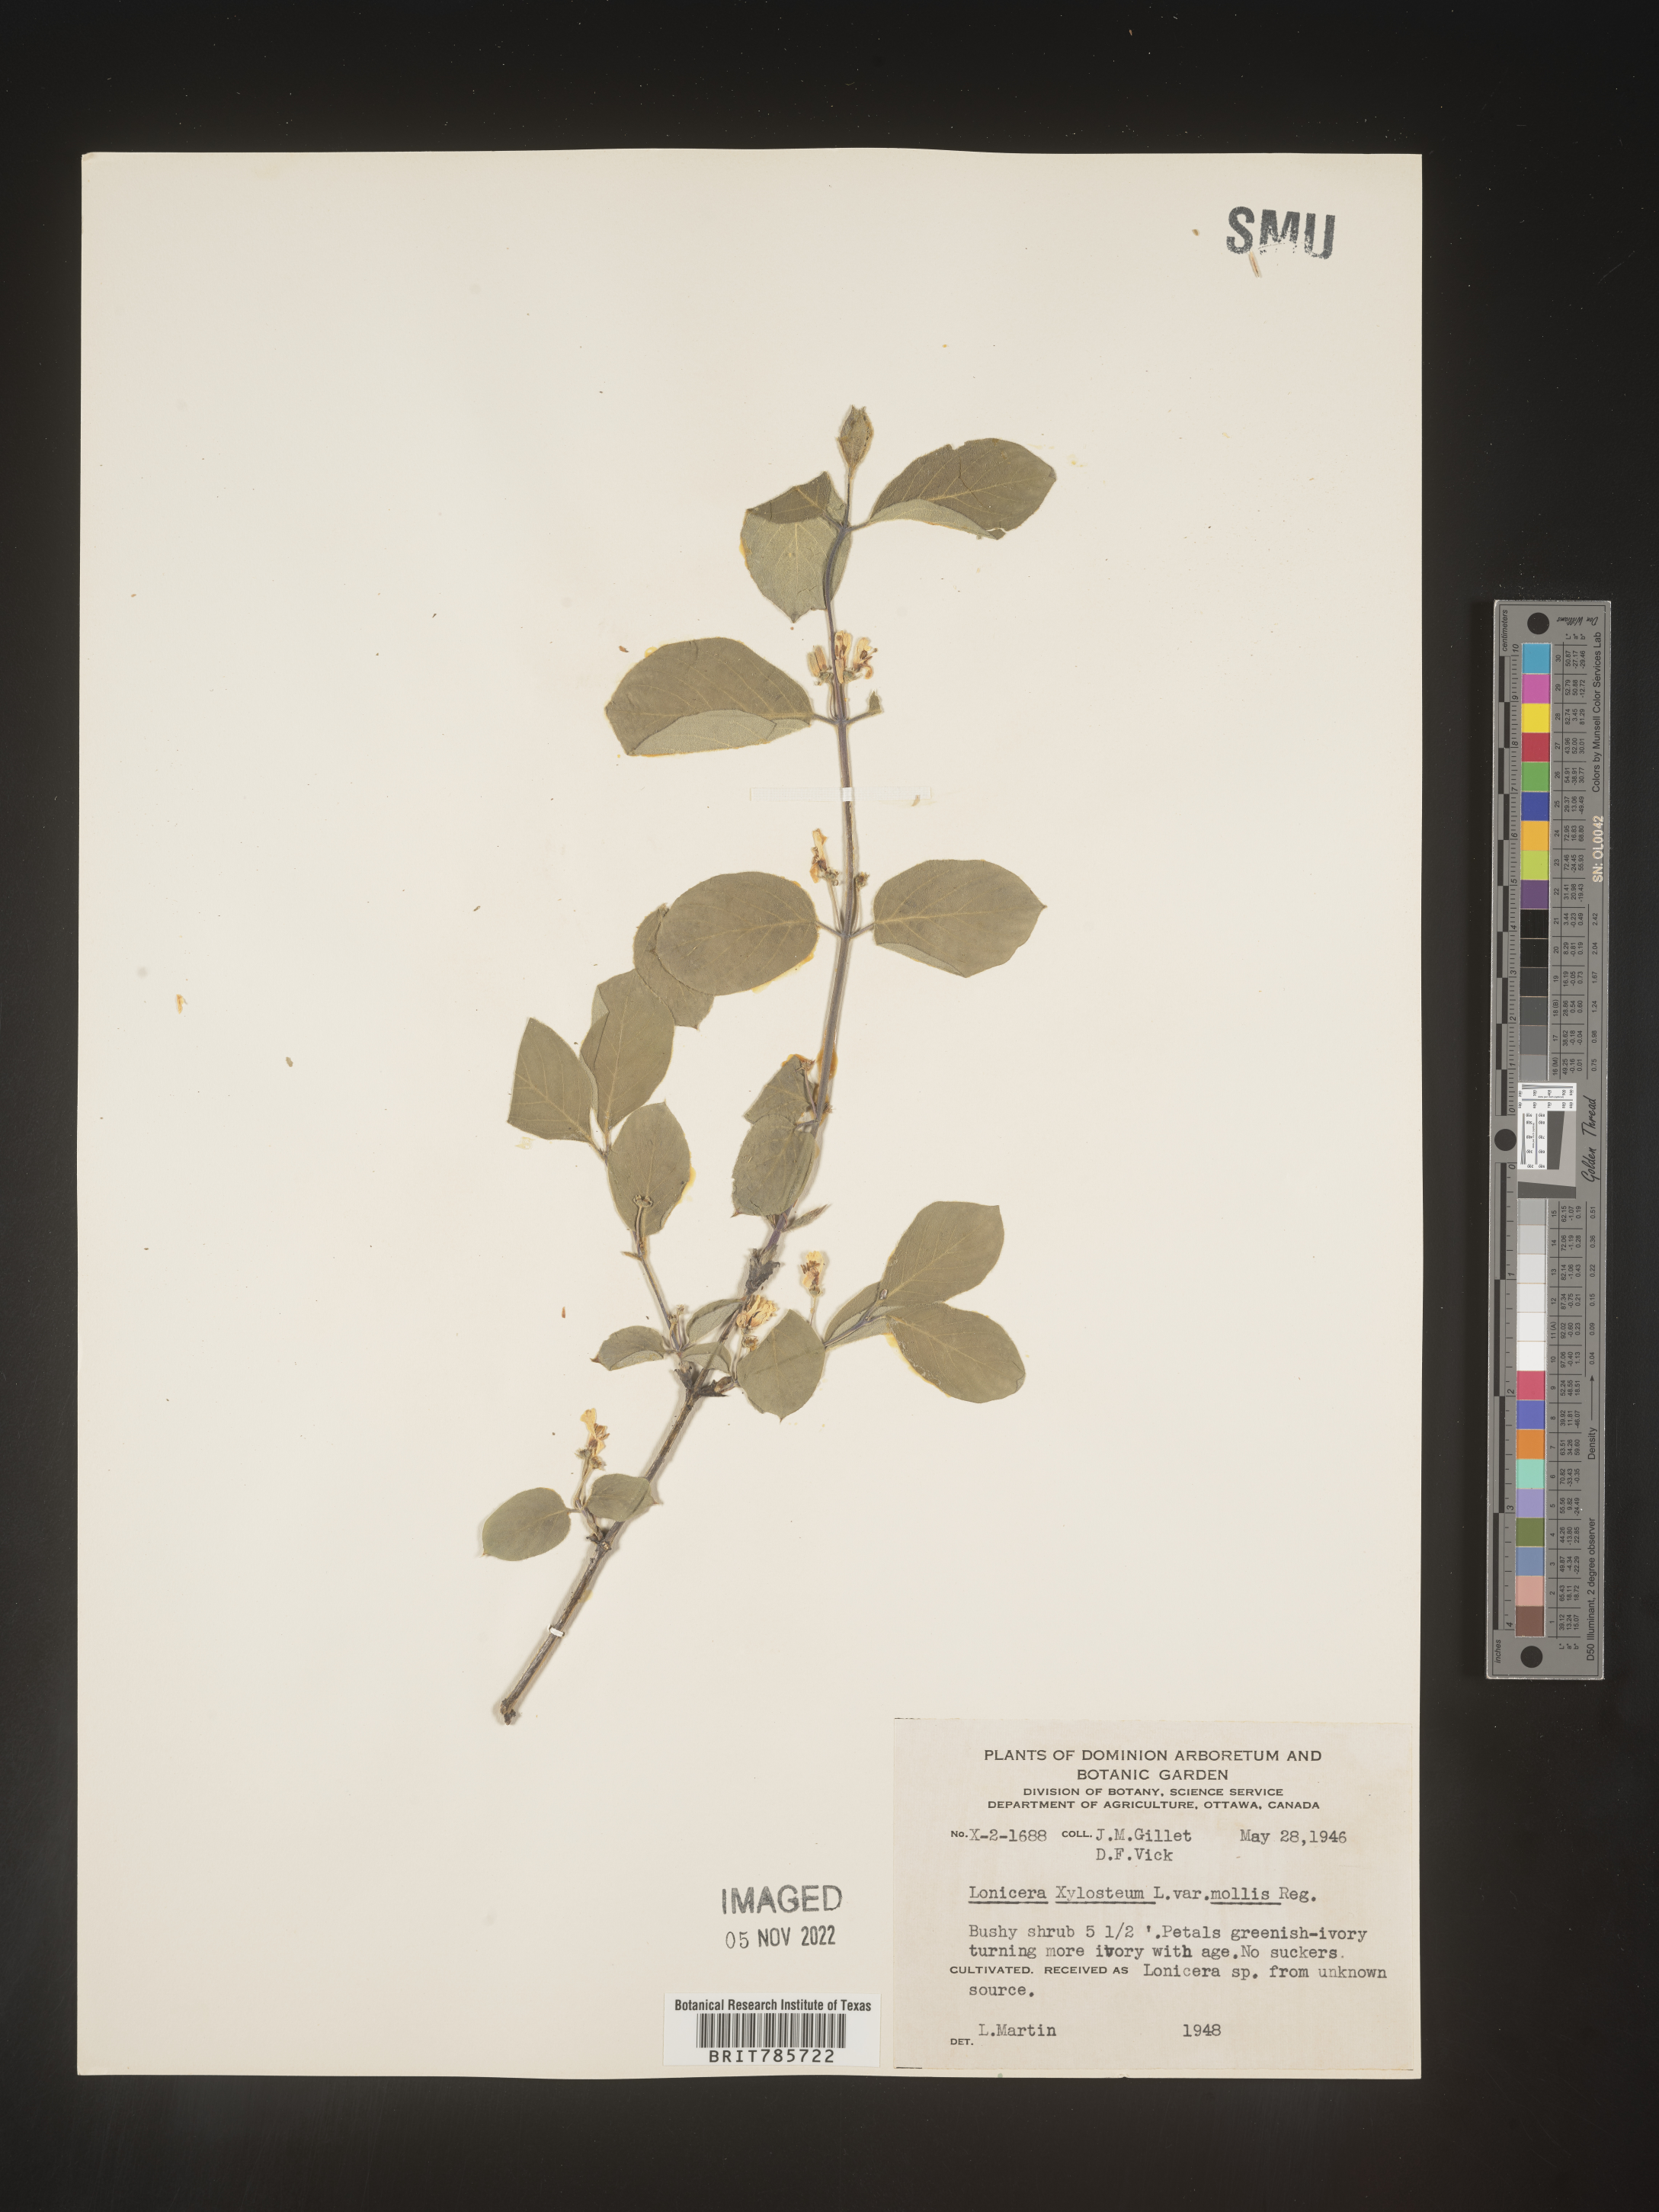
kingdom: Plantae
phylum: Tracheophyta
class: Magnoliopsida
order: Dipsacales
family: Caprifoliaceae
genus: Lonicera
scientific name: Lonicera
